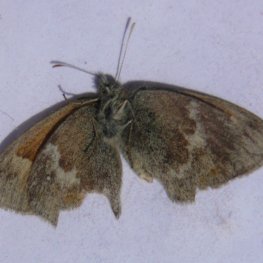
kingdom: Animalia
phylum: Arthropoda
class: Insecta
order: Lepidoptera
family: Nymphalidae
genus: Coenonympha
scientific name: Coenonympha tullia
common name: Large Heath
